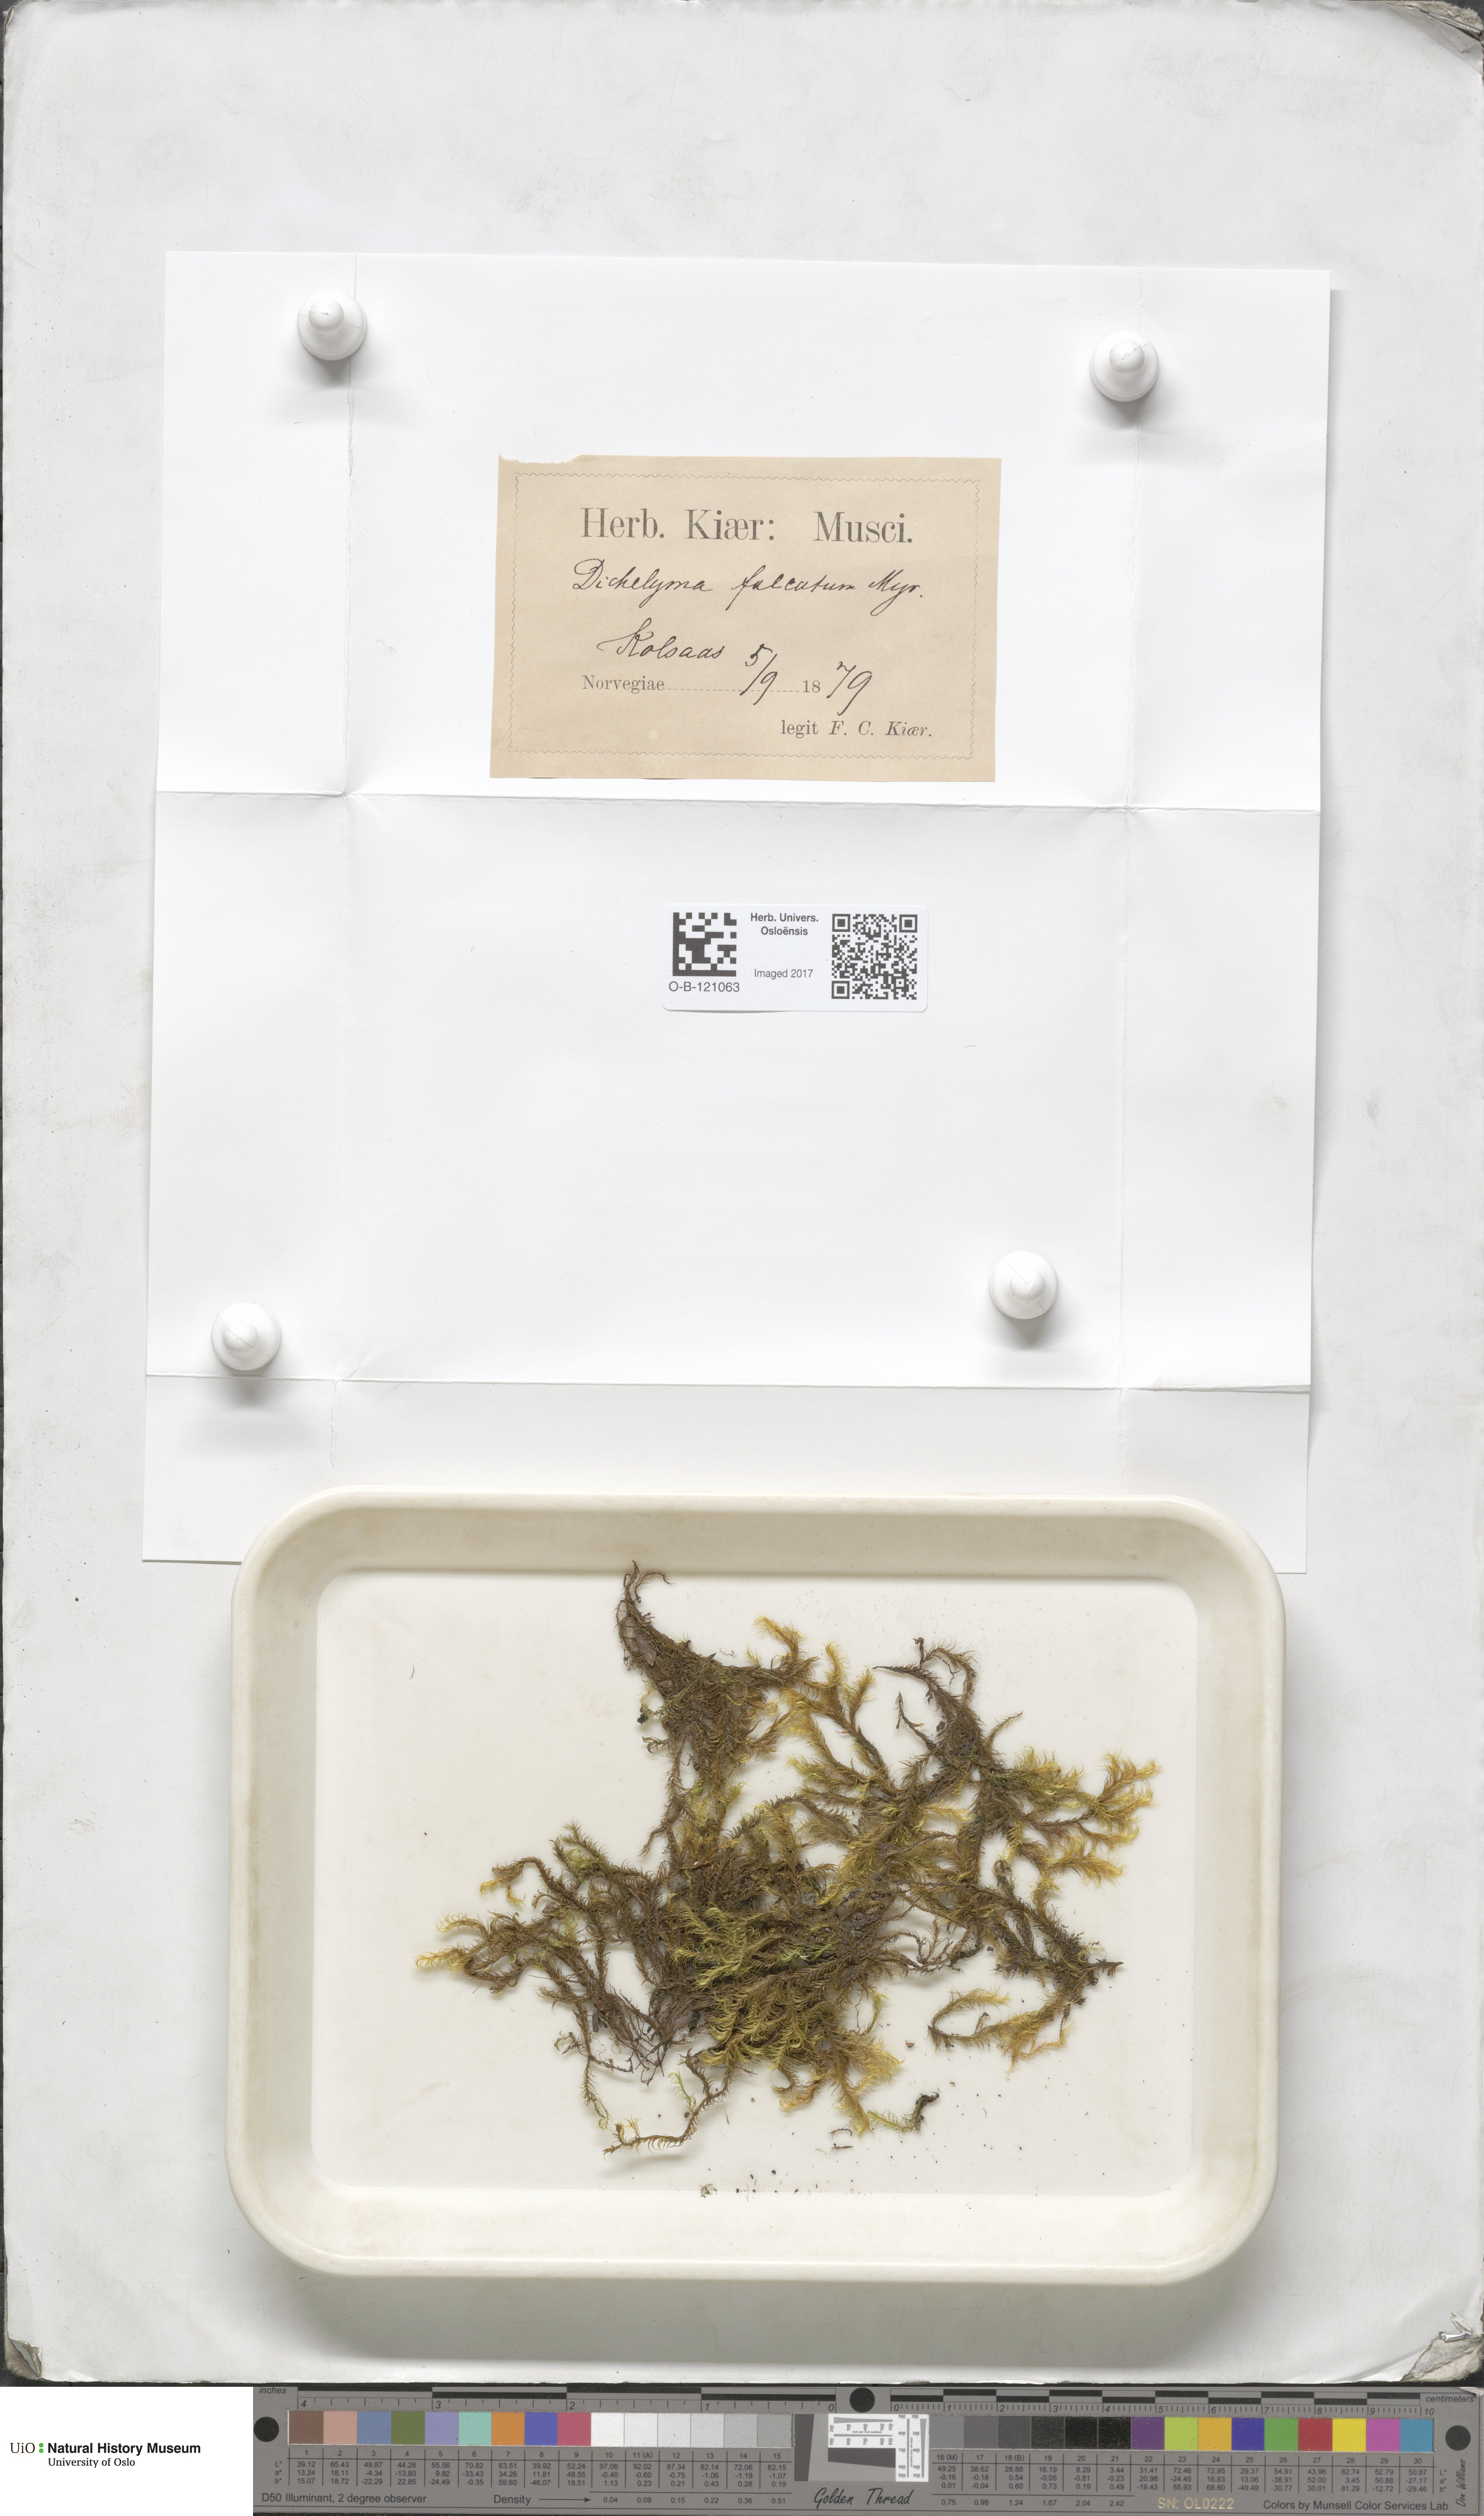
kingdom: Plantae
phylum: Bryophyta
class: Bryopsida
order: Hypnales
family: Fontinalaceae
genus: Dichelyma
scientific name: Dichelyma falcatum
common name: Lance-leaved claw moss
